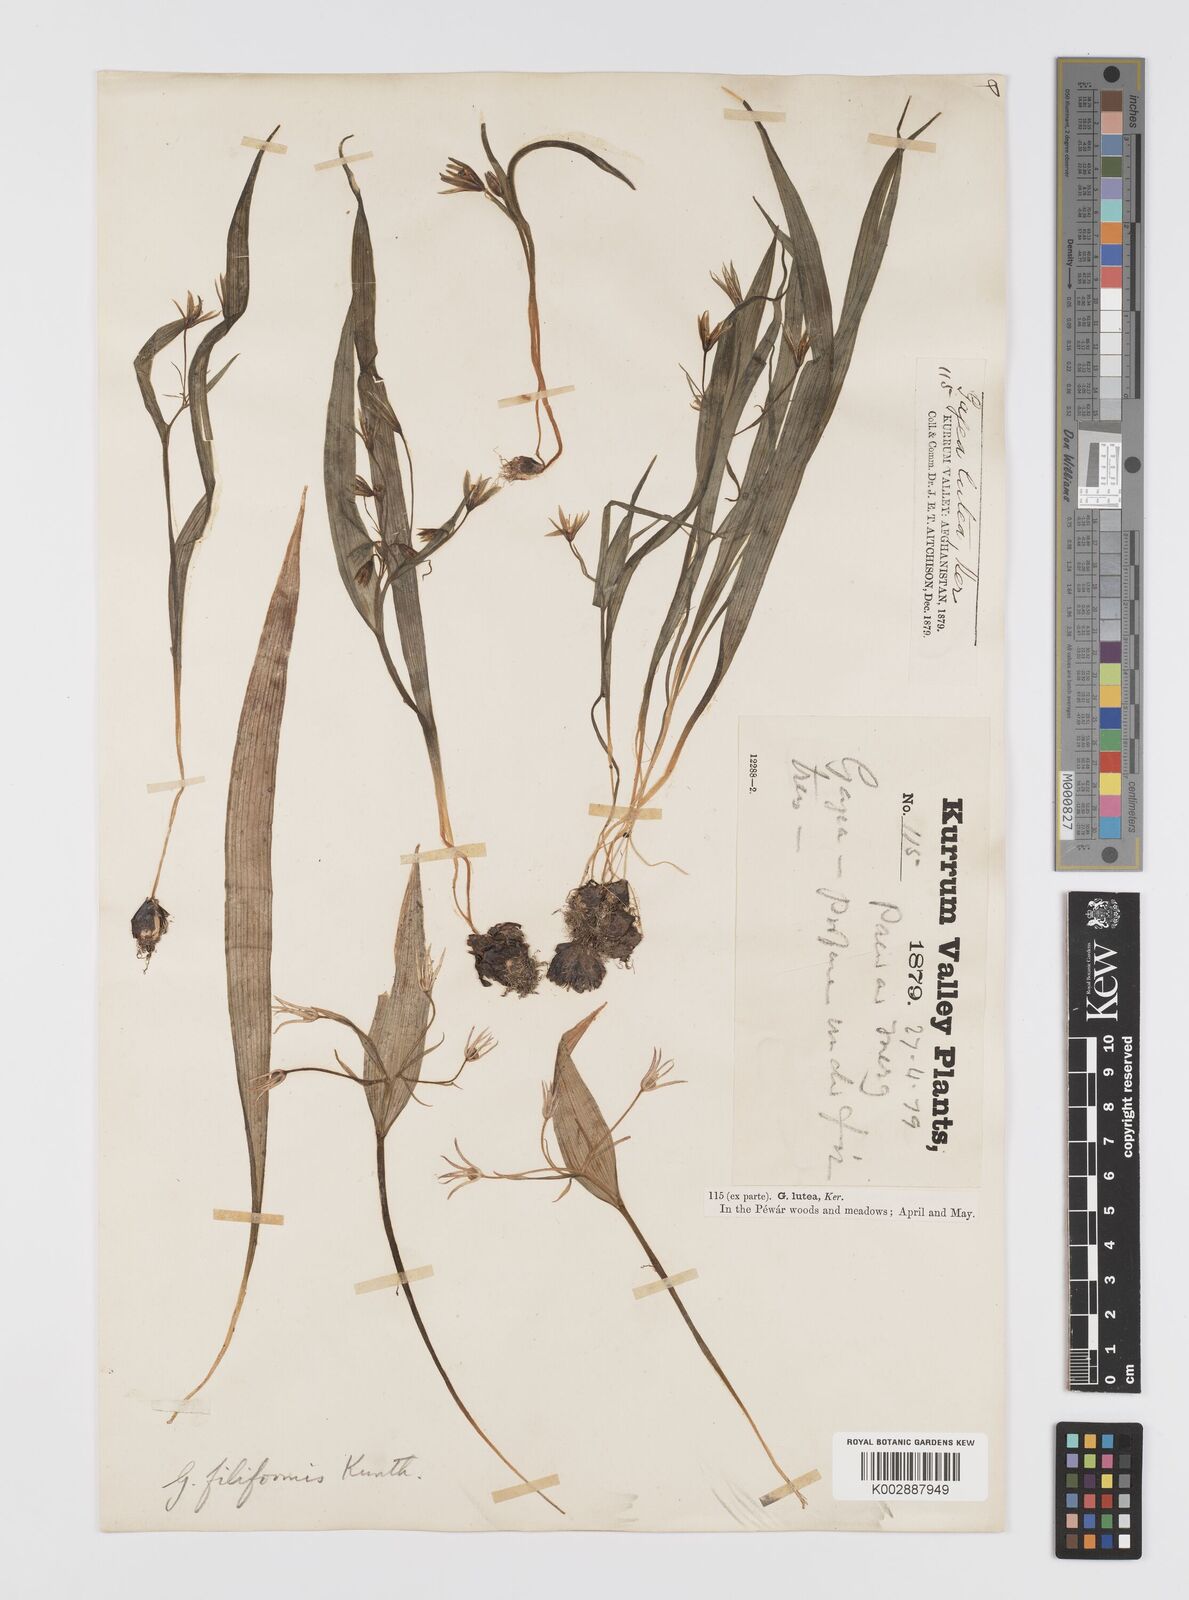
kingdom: Plantae
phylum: Tracheophyta
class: Liliopsida
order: Liliales
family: Liliaceae
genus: Gagea
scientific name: Gagea filiformis
